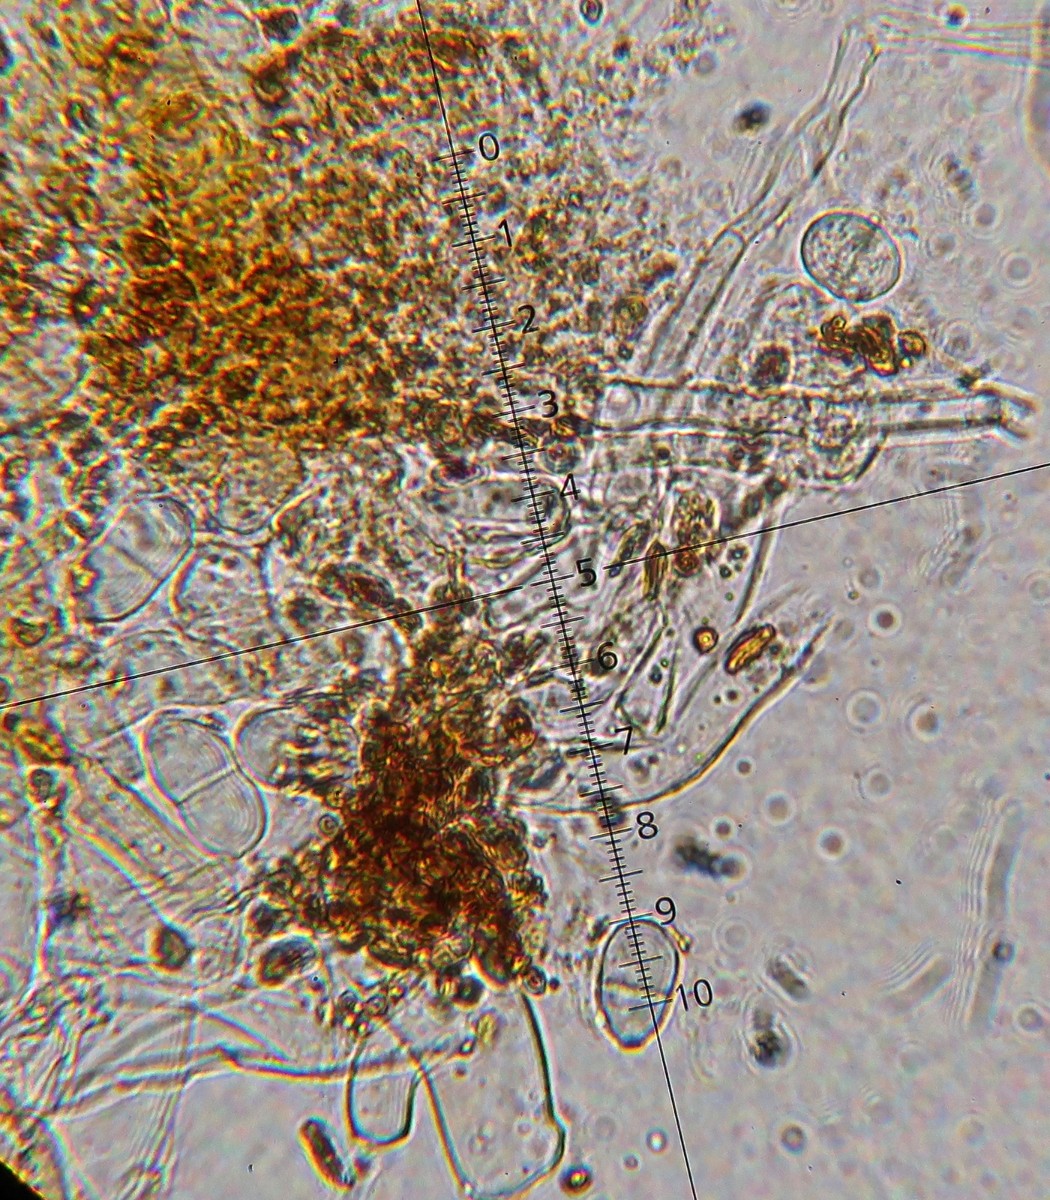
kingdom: Fungi
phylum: Ascomycota
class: Sordariomycetes
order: Hypocreales
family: Hypocreaceae
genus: Hypomyces
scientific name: Hypomyces aurantius
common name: almindelig snylteskorpe
